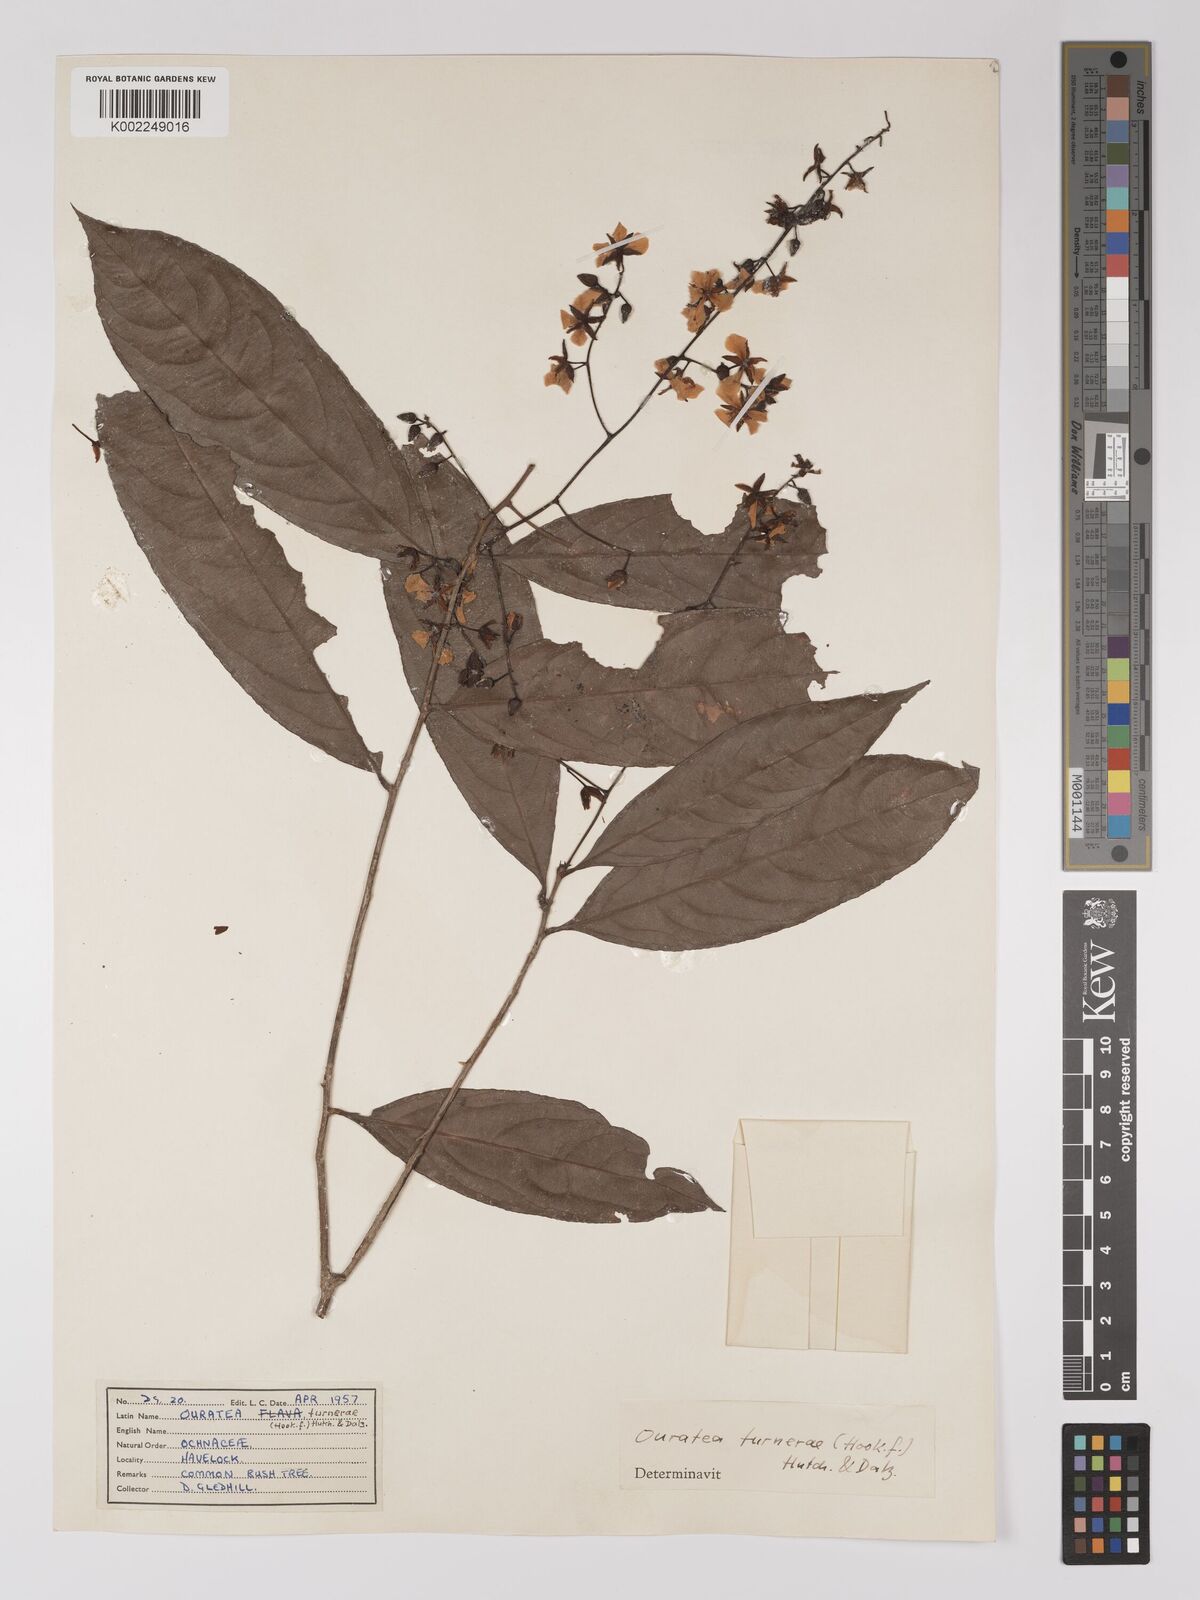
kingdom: Plantae
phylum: Tracheophyta
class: Magnoliopsida
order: Malpighiales
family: Ochnaceae
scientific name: Ochnaceae
